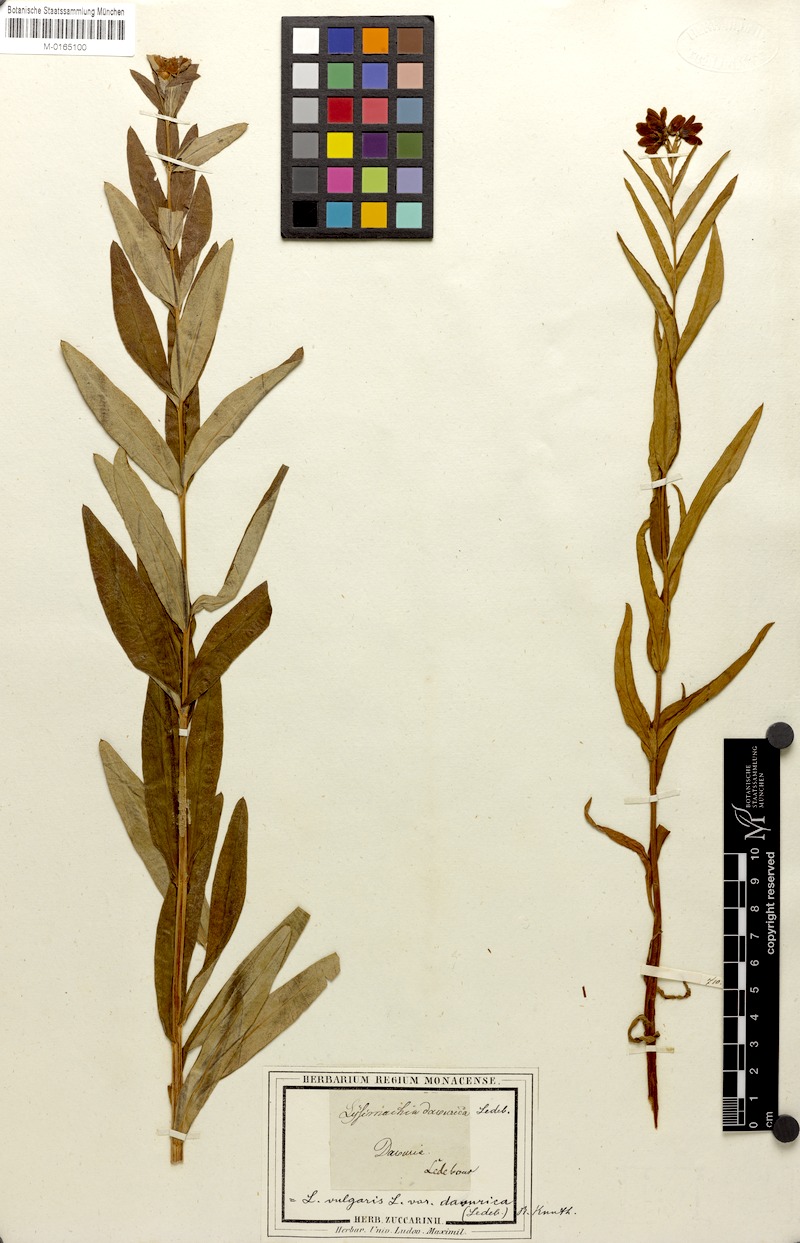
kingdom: Plantae
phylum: Tracheophyta
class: Magnoliopsida
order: Ericales
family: Primulaceae
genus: Lysimachia
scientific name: Lysimachia davurica
